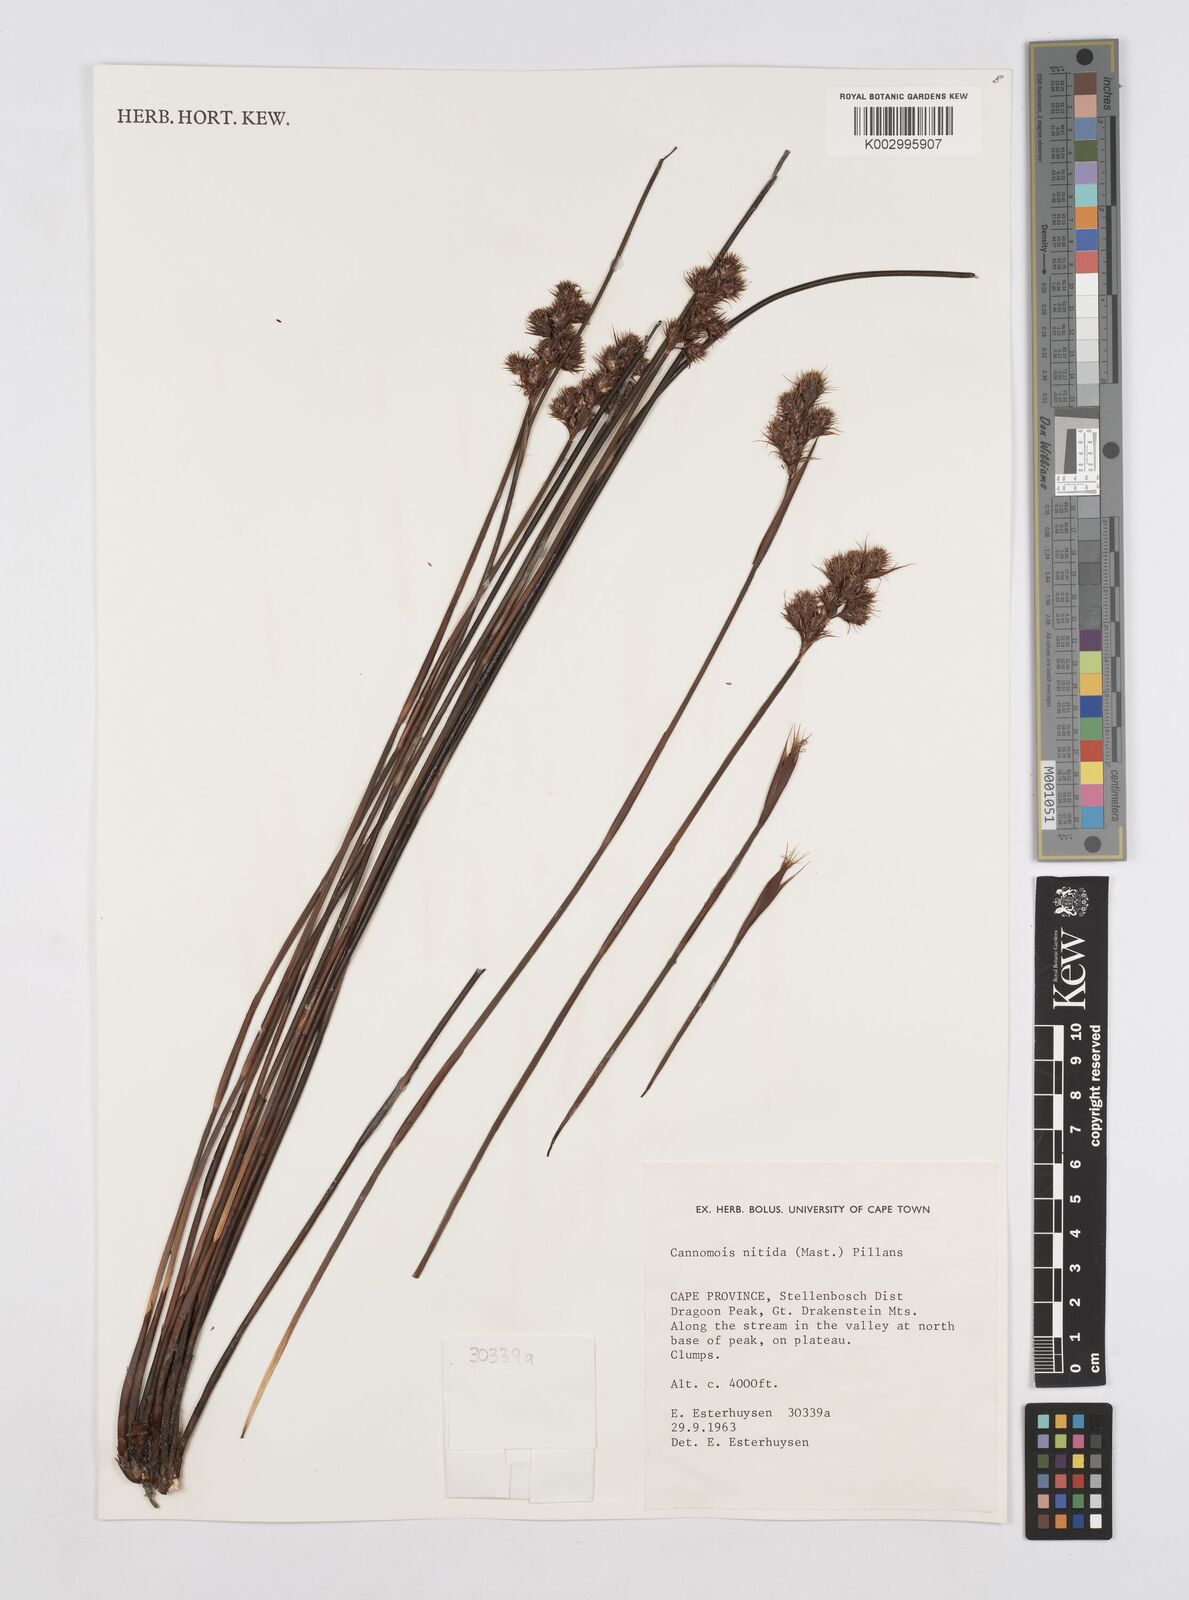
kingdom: Plantae
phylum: Tracheophyta
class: Liliopsida
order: Poales
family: Restionaceae
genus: Cannomois
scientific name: Cannomois nitida
